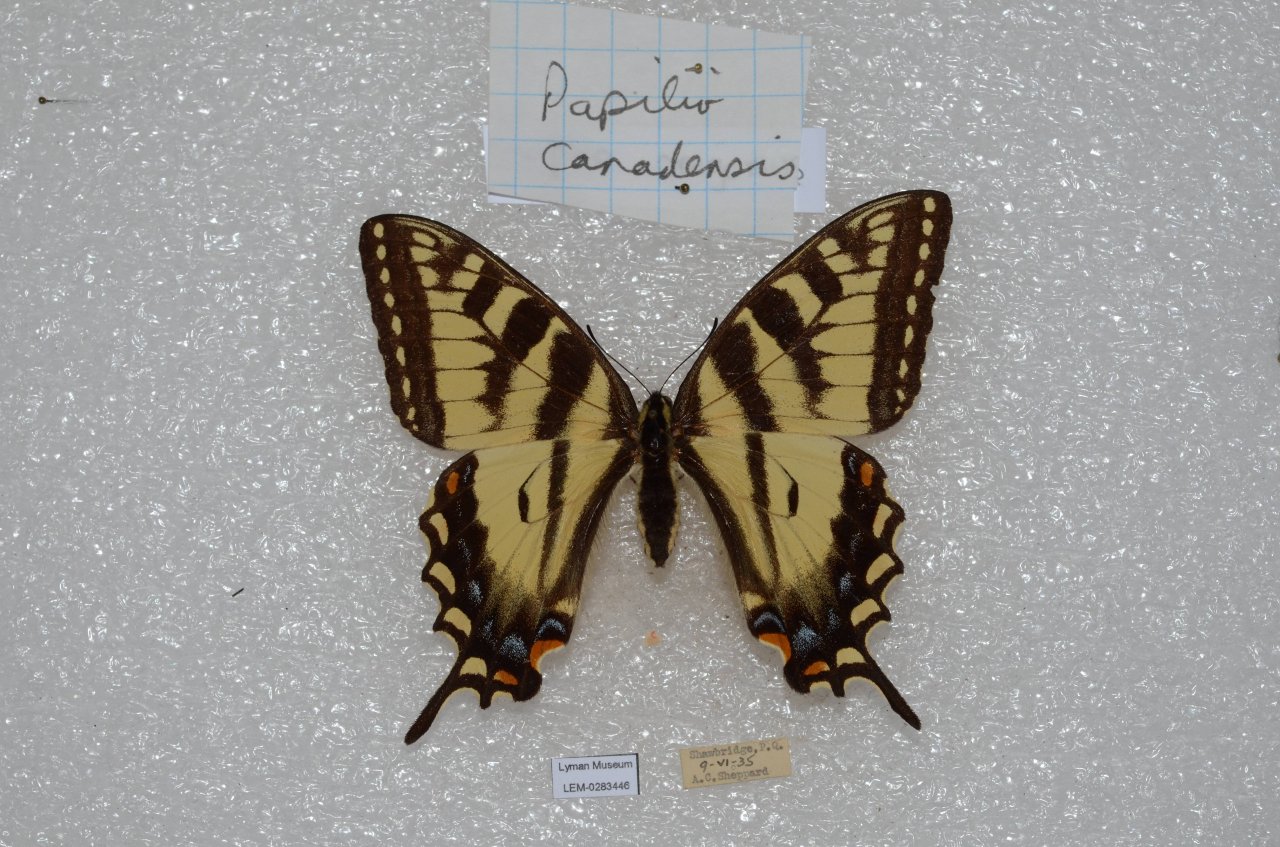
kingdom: Animalia
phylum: Arthropoda
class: Insecta
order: Lepidoptera
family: Papilionidae
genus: Pterourus
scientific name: Pterourus canadensis
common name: Canadian Tiger Swallowtail
